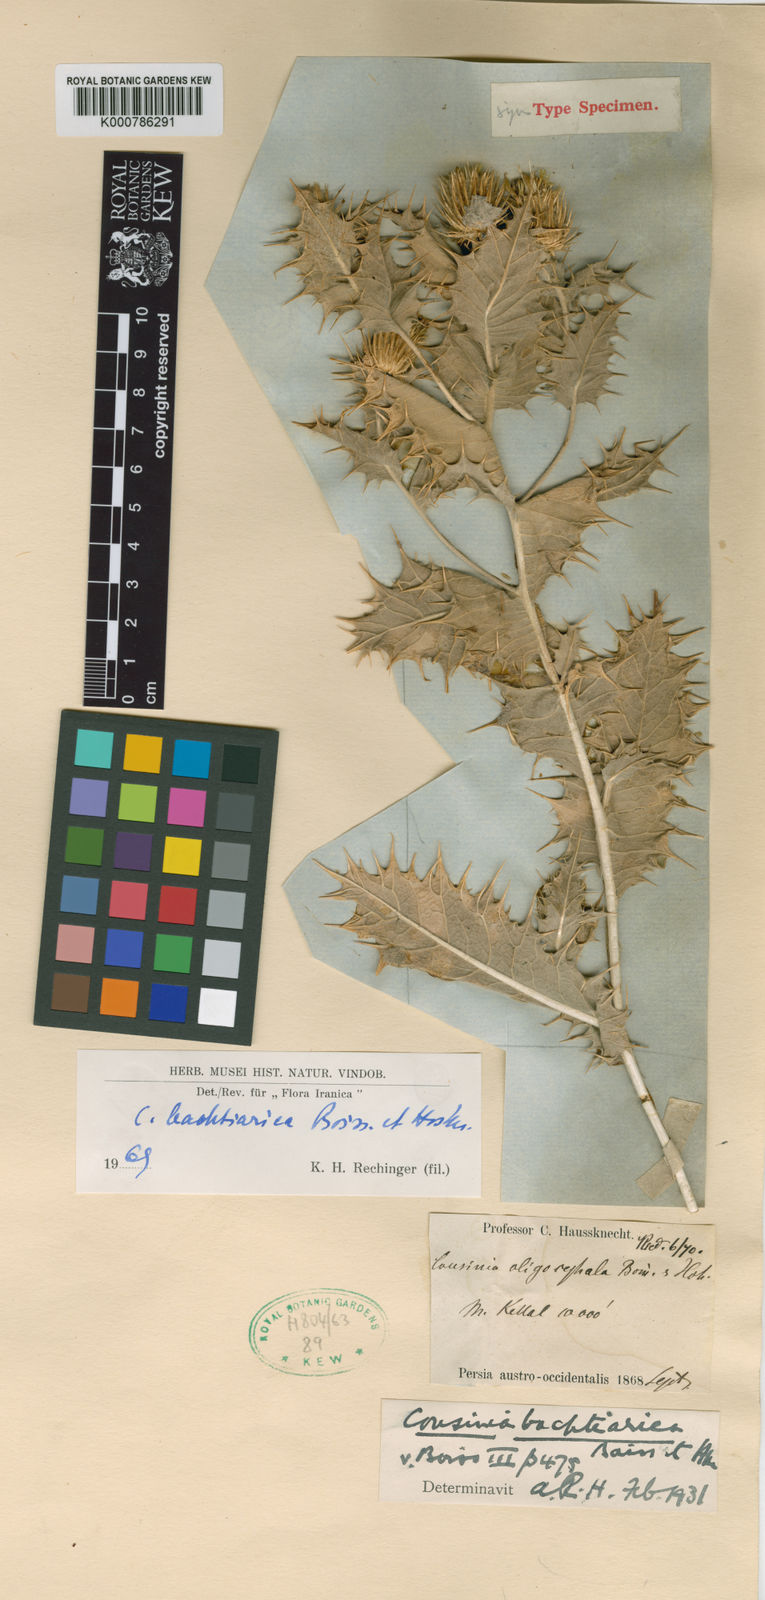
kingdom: Plantae
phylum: Tracheophyta
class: Magnoliopsida
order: Asterales
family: Asteraceae
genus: Cousinia
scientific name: Cousinia bachtiarica
